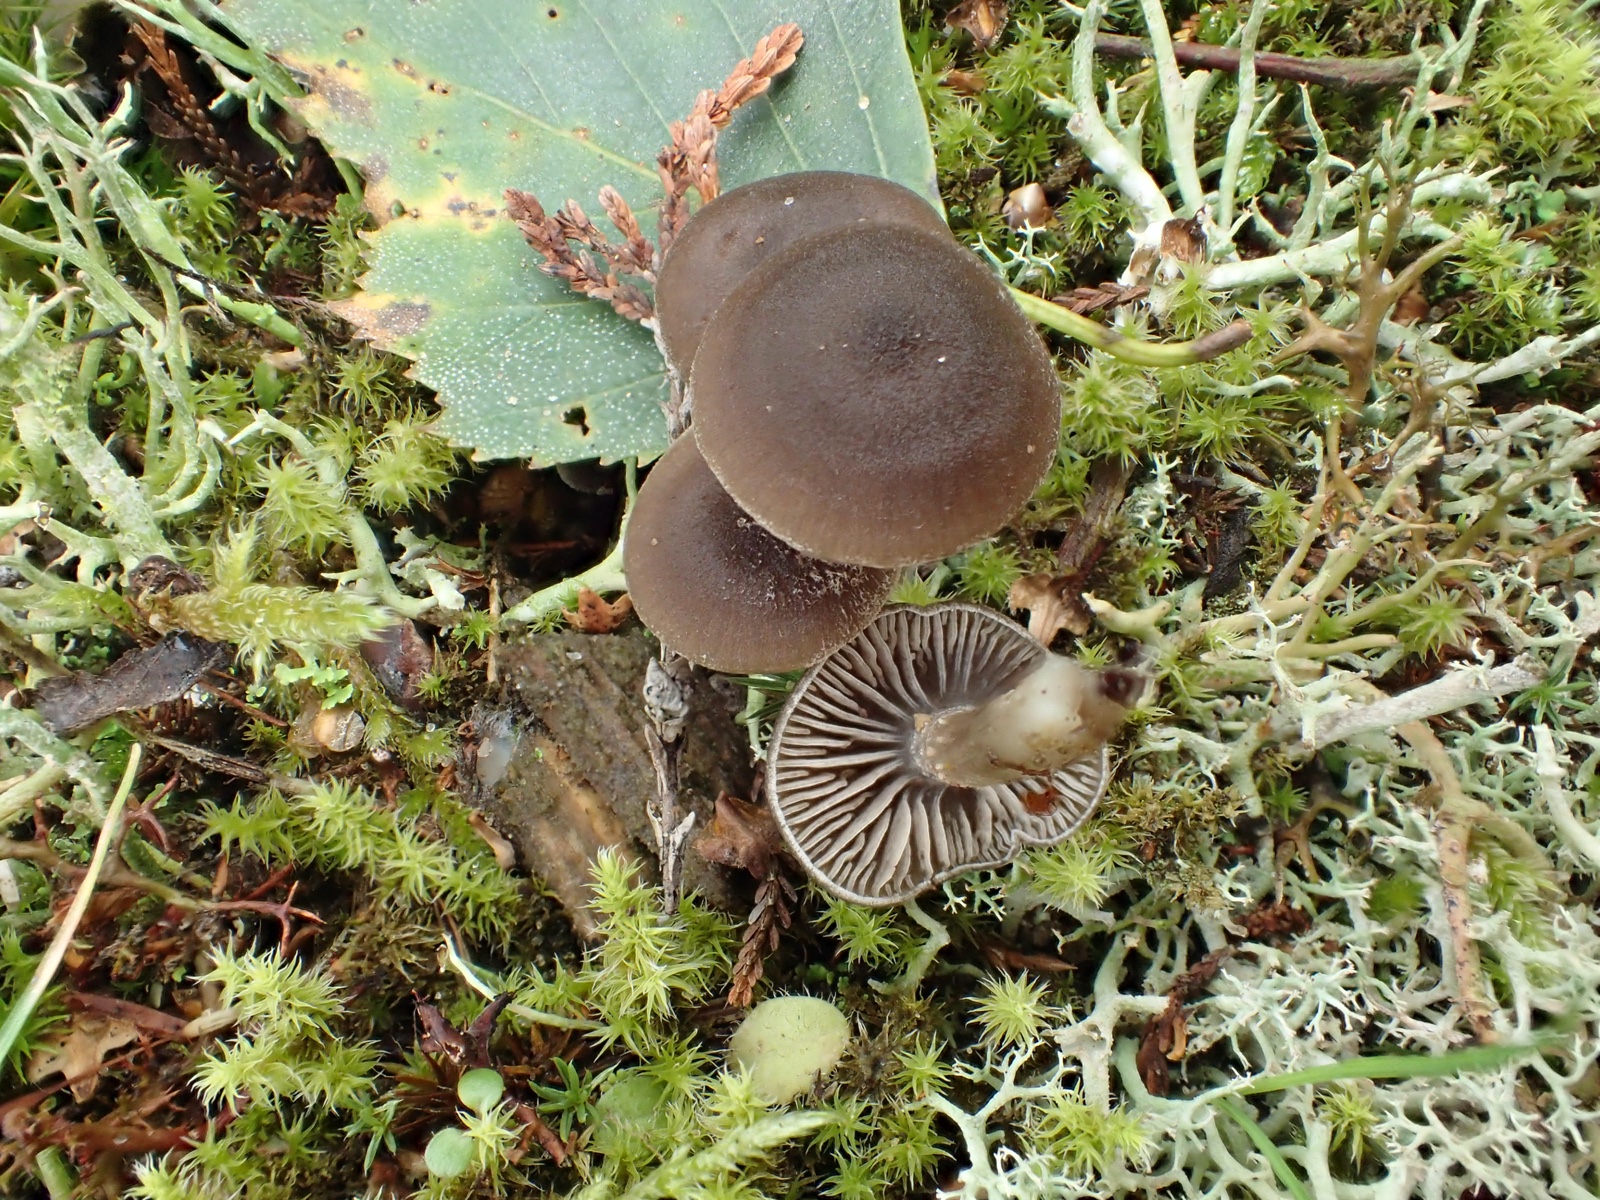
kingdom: Fungi
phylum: Basidiomycota
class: Agaricomycetes
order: Agaricales
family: Entolomataceae
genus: Entoloma
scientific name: Entoloma
